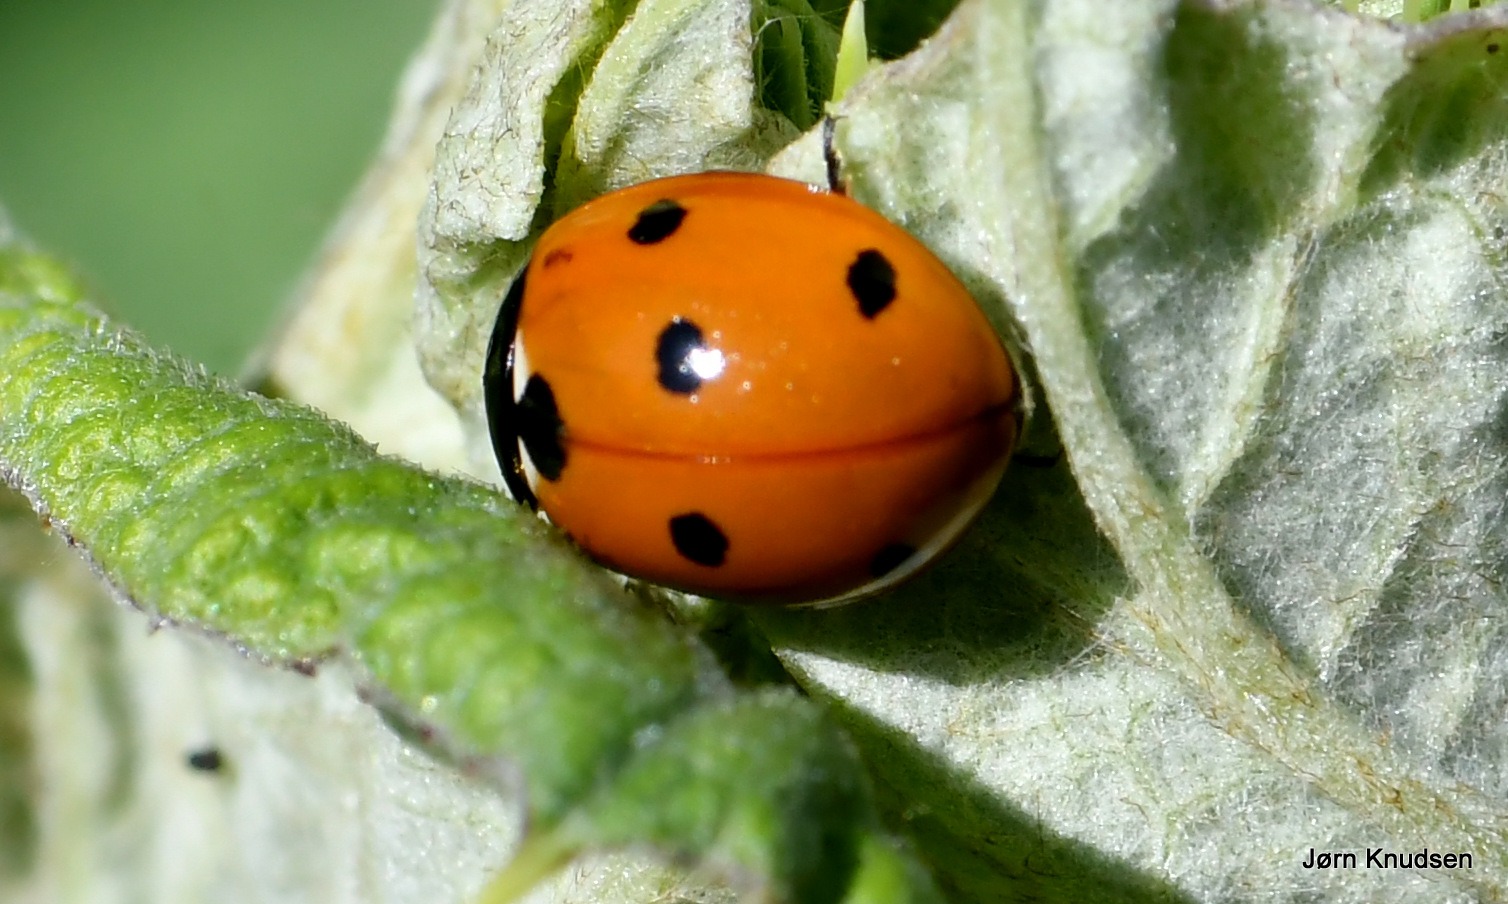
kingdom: Animalia
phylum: Arthropoda
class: Insecta
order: Coleoptera
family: Coccinellidae
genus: Coccinella
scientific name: Coccinella septempunctata
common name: Syvplettet mariehøne
